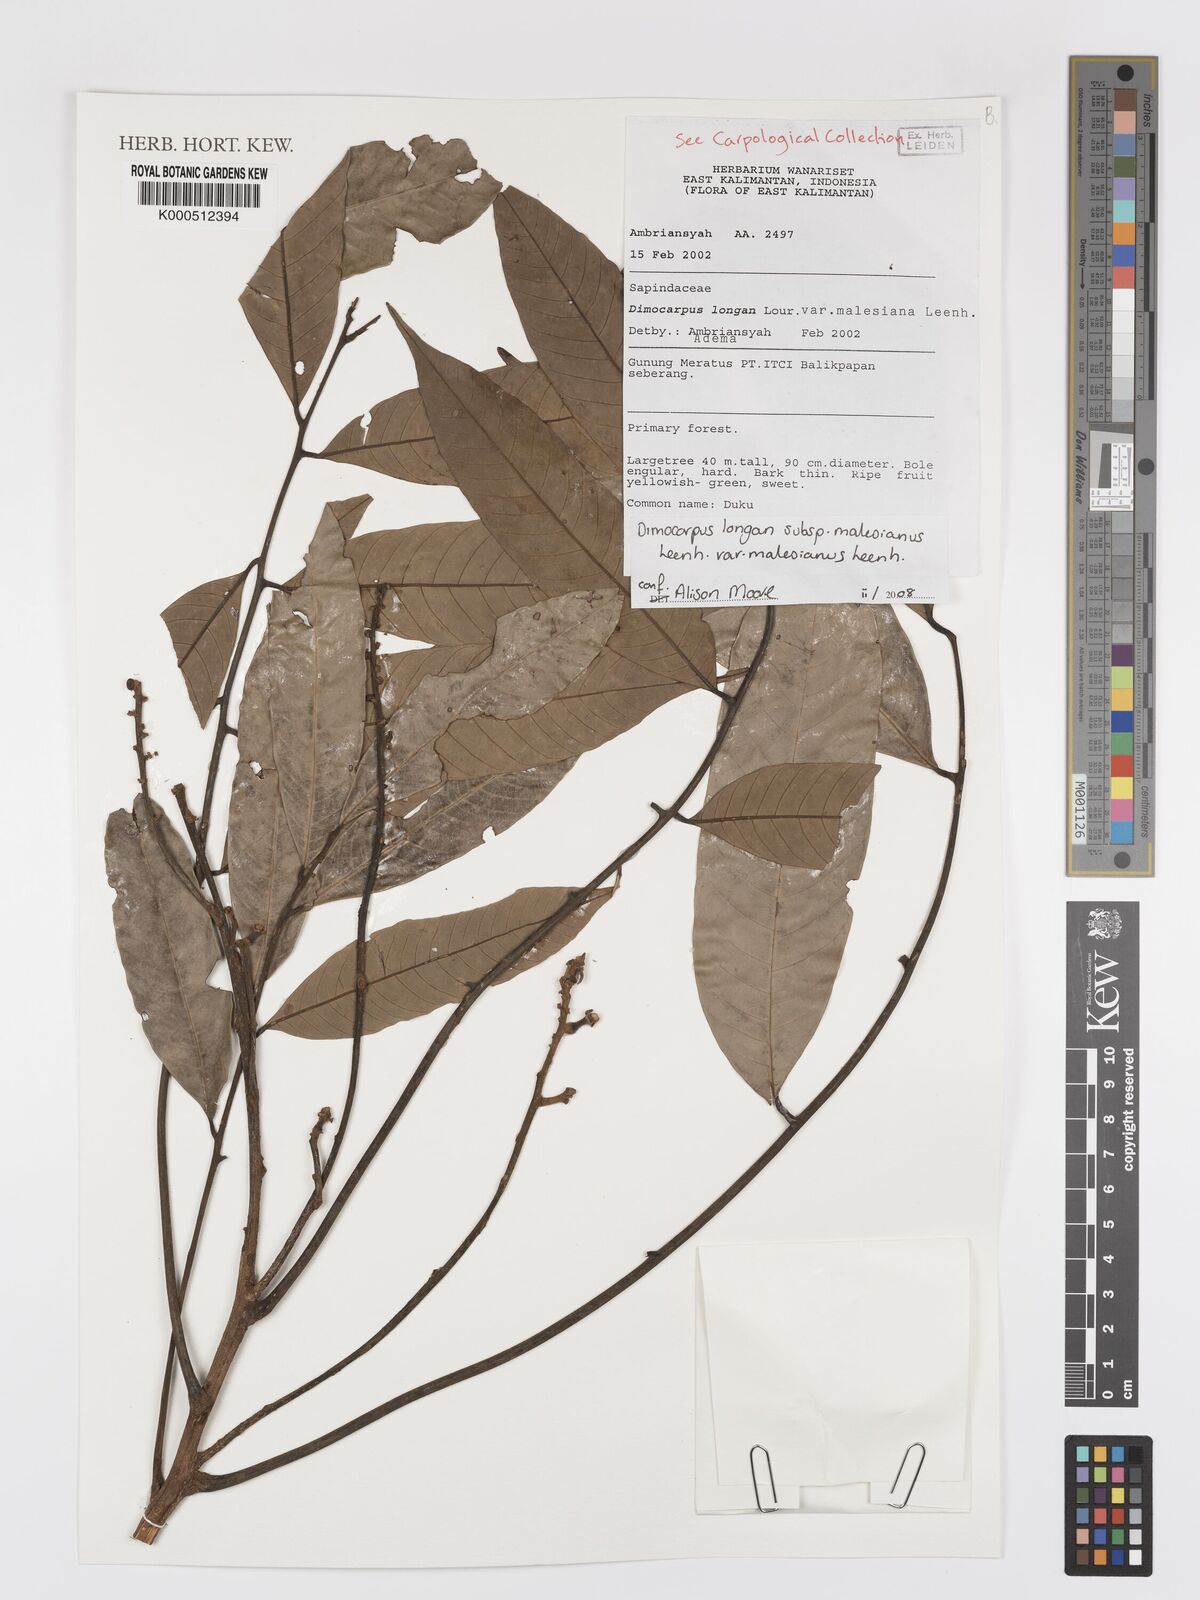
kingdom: Plantae
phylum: Tracheophyta
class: Magnoliopsida
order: Sapindales
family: Sapindaceae
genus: Dimocarpus
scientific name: Dimocarpus malesianus
